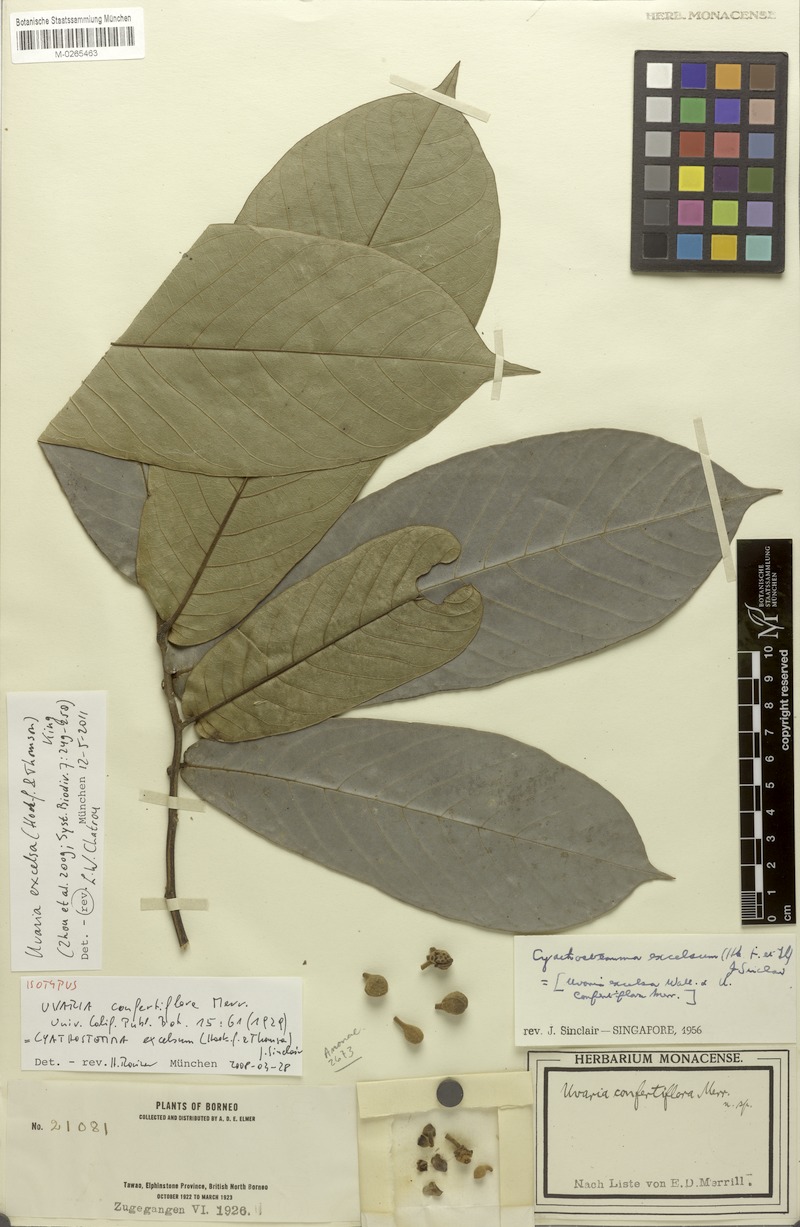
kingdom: Plantae
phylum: Tracheophyta
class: Magnoliopsida
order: Magnoliales
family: Annonaceae
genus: Uvaria
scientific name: Uvaria excelsa
